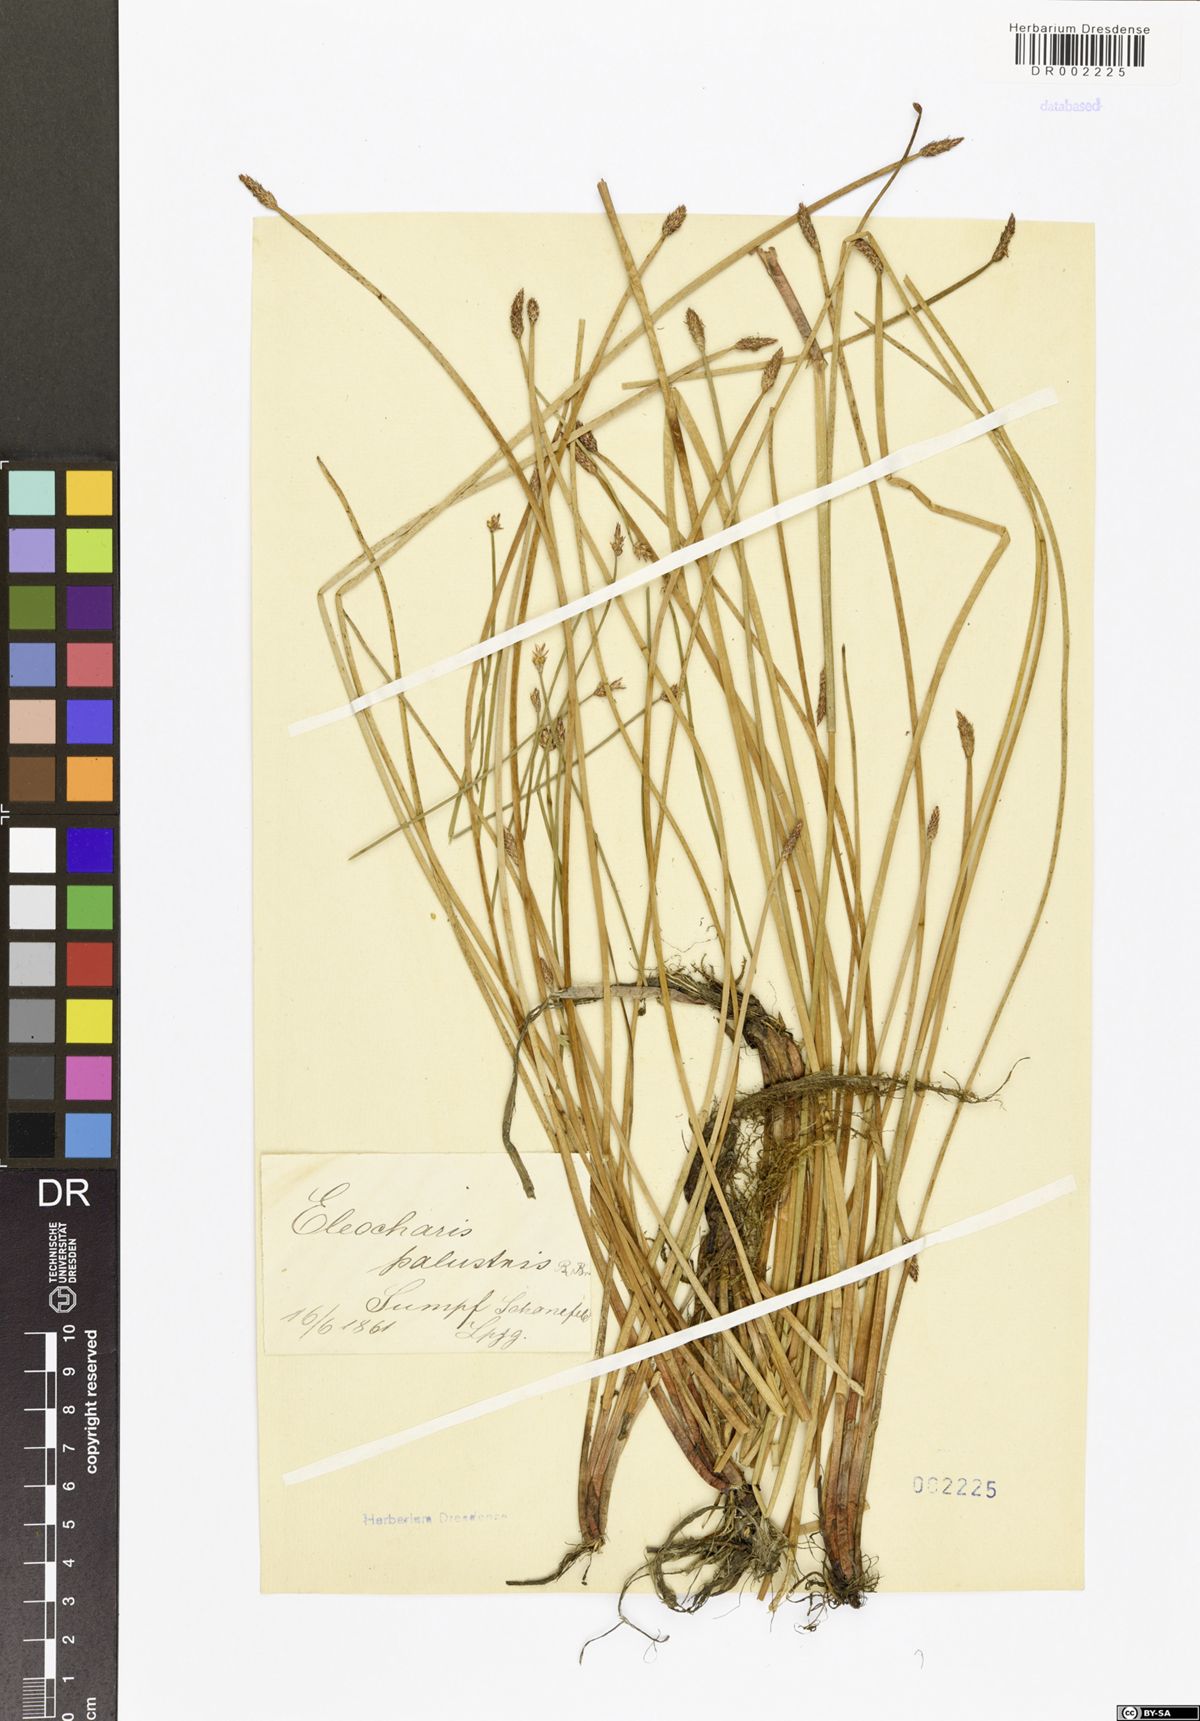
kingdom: Plantae
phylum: Tracheophyta
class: Liliopsida
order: Poales
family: Cyperaceae
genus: Eleocharis
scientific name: Eleocharis palustris
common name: Common spike-rush
